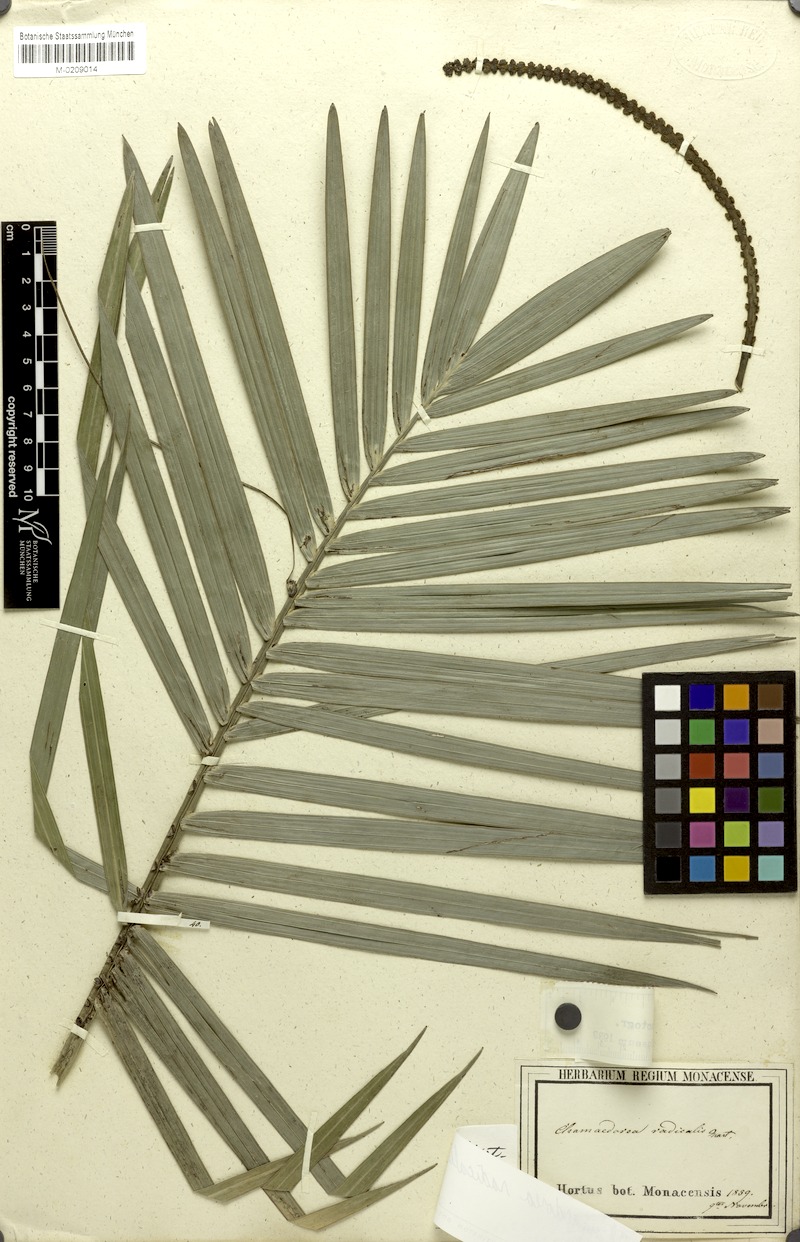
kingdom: Plantae
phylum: Tracheophyta
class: Liliopsida
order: Arecales
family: Arecaceae
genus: Chamaedorea
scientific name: Chamaedorea radicalis
